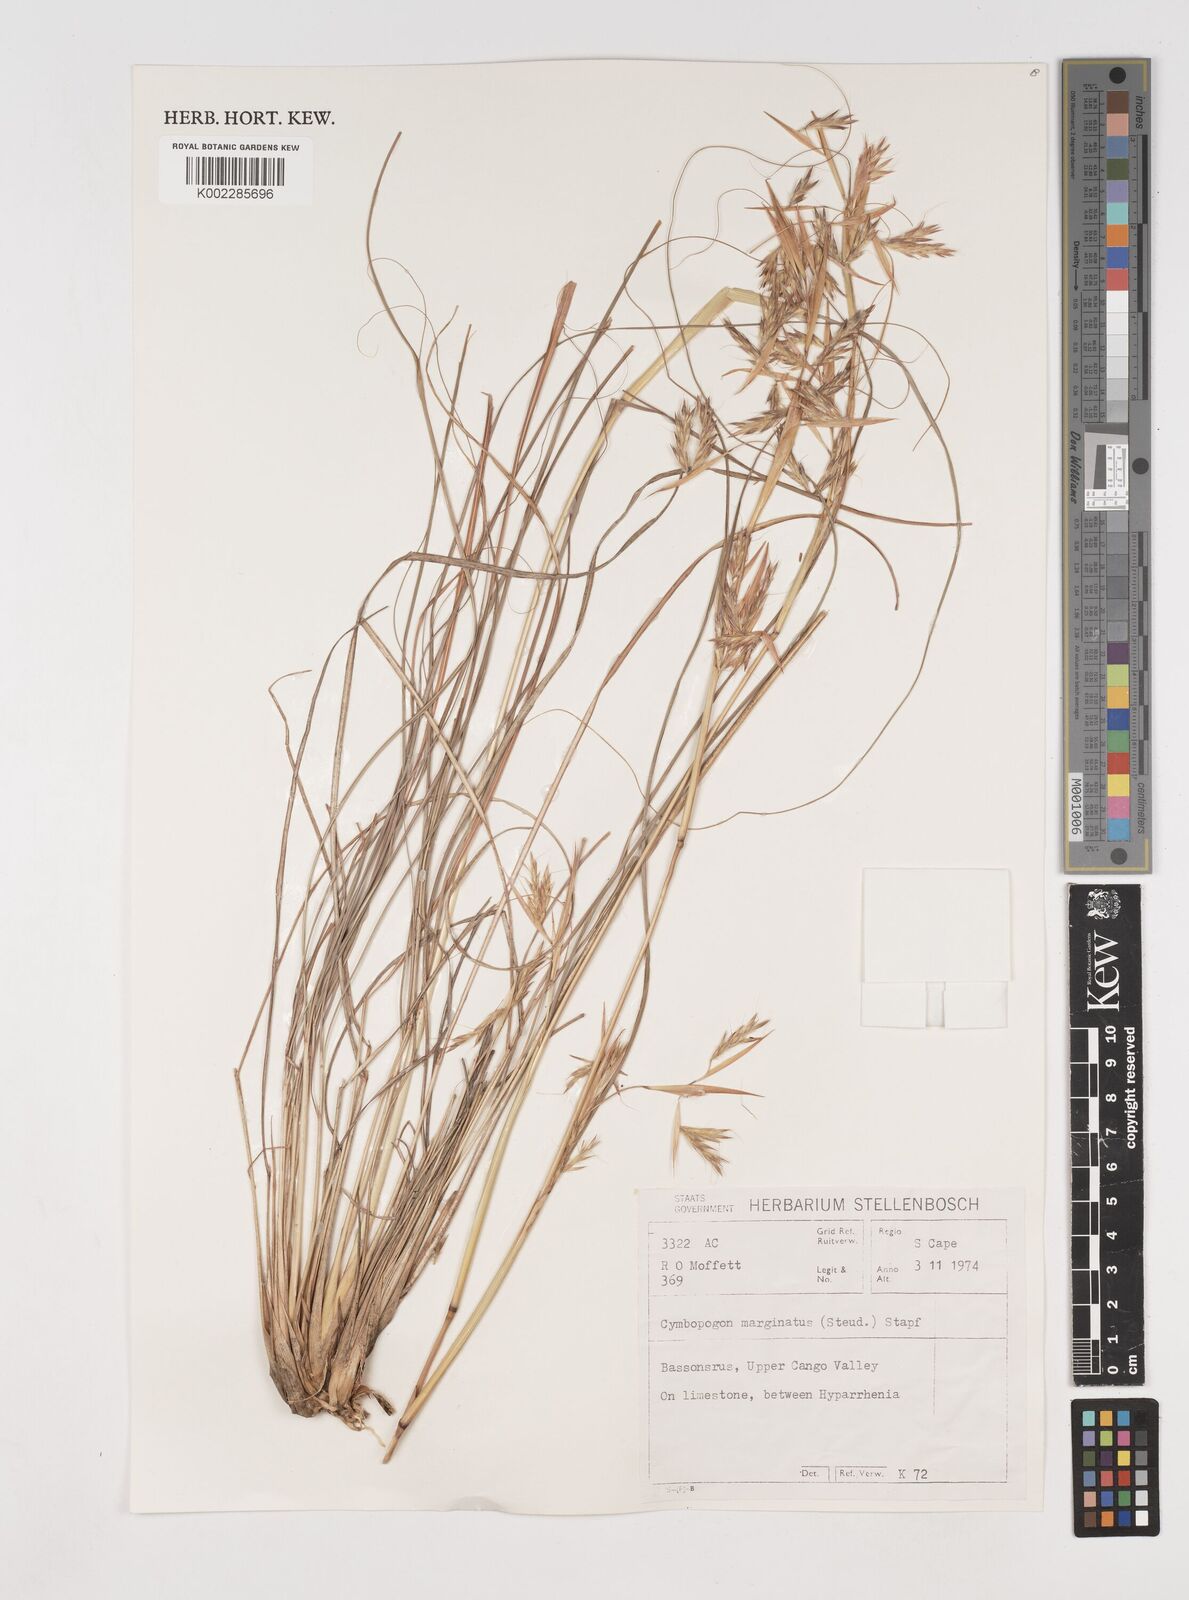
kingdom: Plantae
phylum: Tracheophyta
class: Liliopsida
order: Poales
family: Poaceae
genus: Cymbopogon
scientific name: Cymbopogon marginatus
